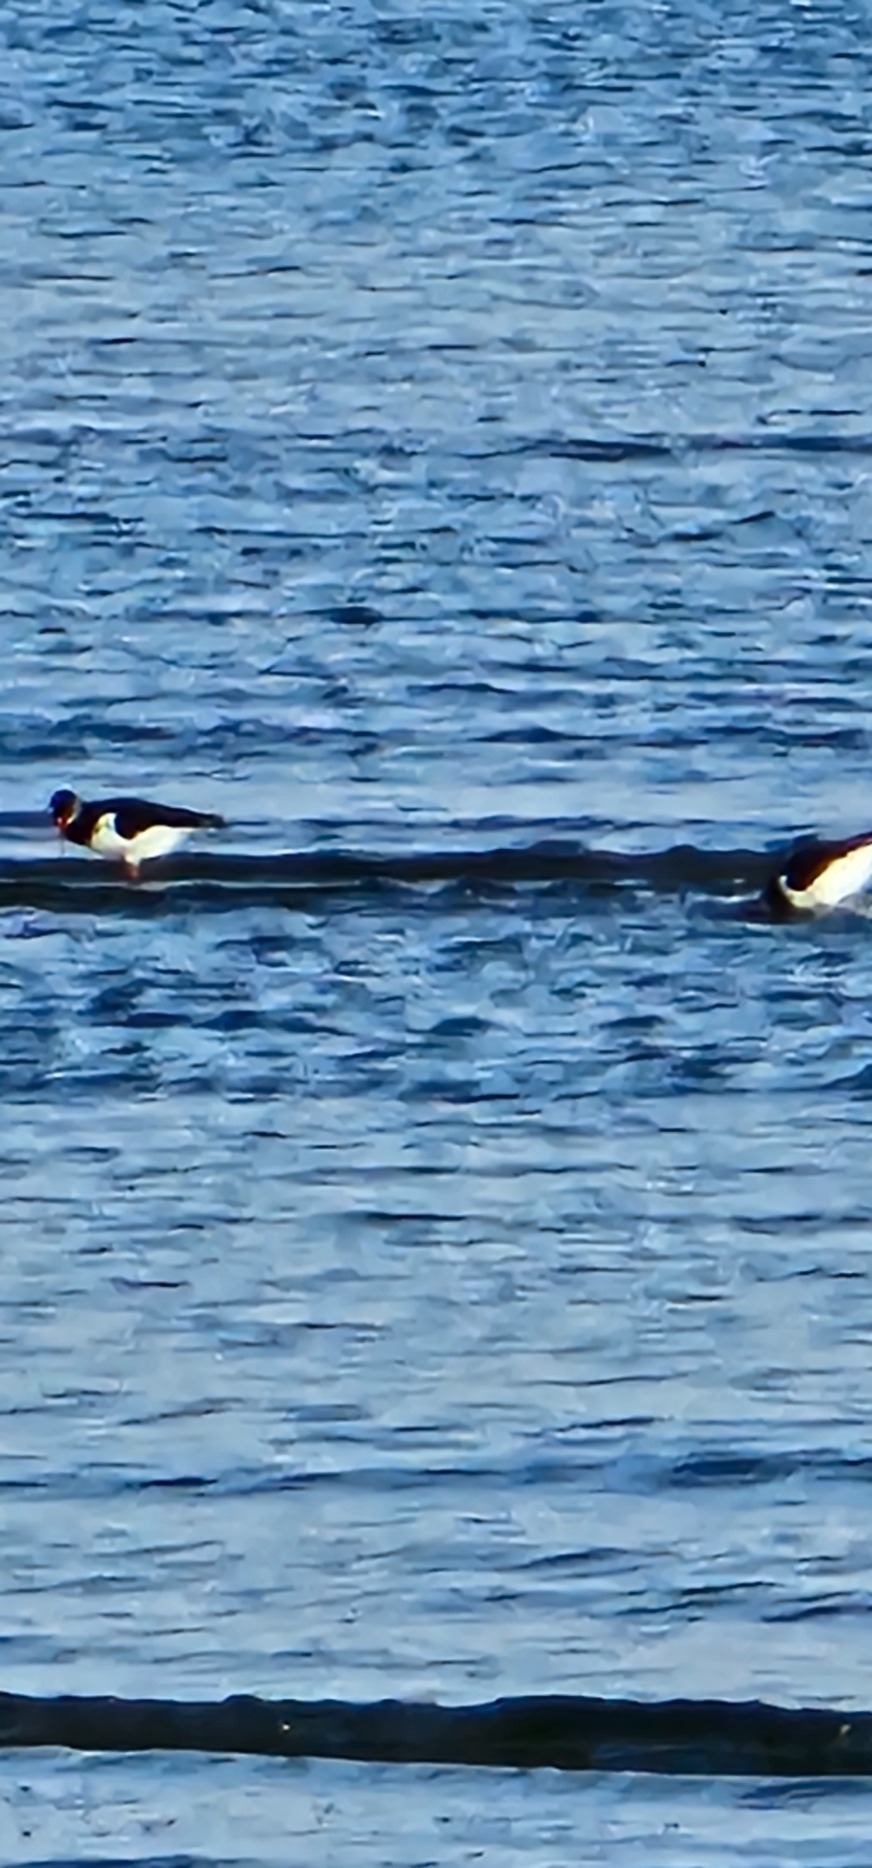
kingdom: Animalia
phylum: Chordata
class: Aves
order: Charadriiformes
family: Haematopodidae
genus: Haematopus
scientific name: Haematopus ostralegus
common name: Strandskade
